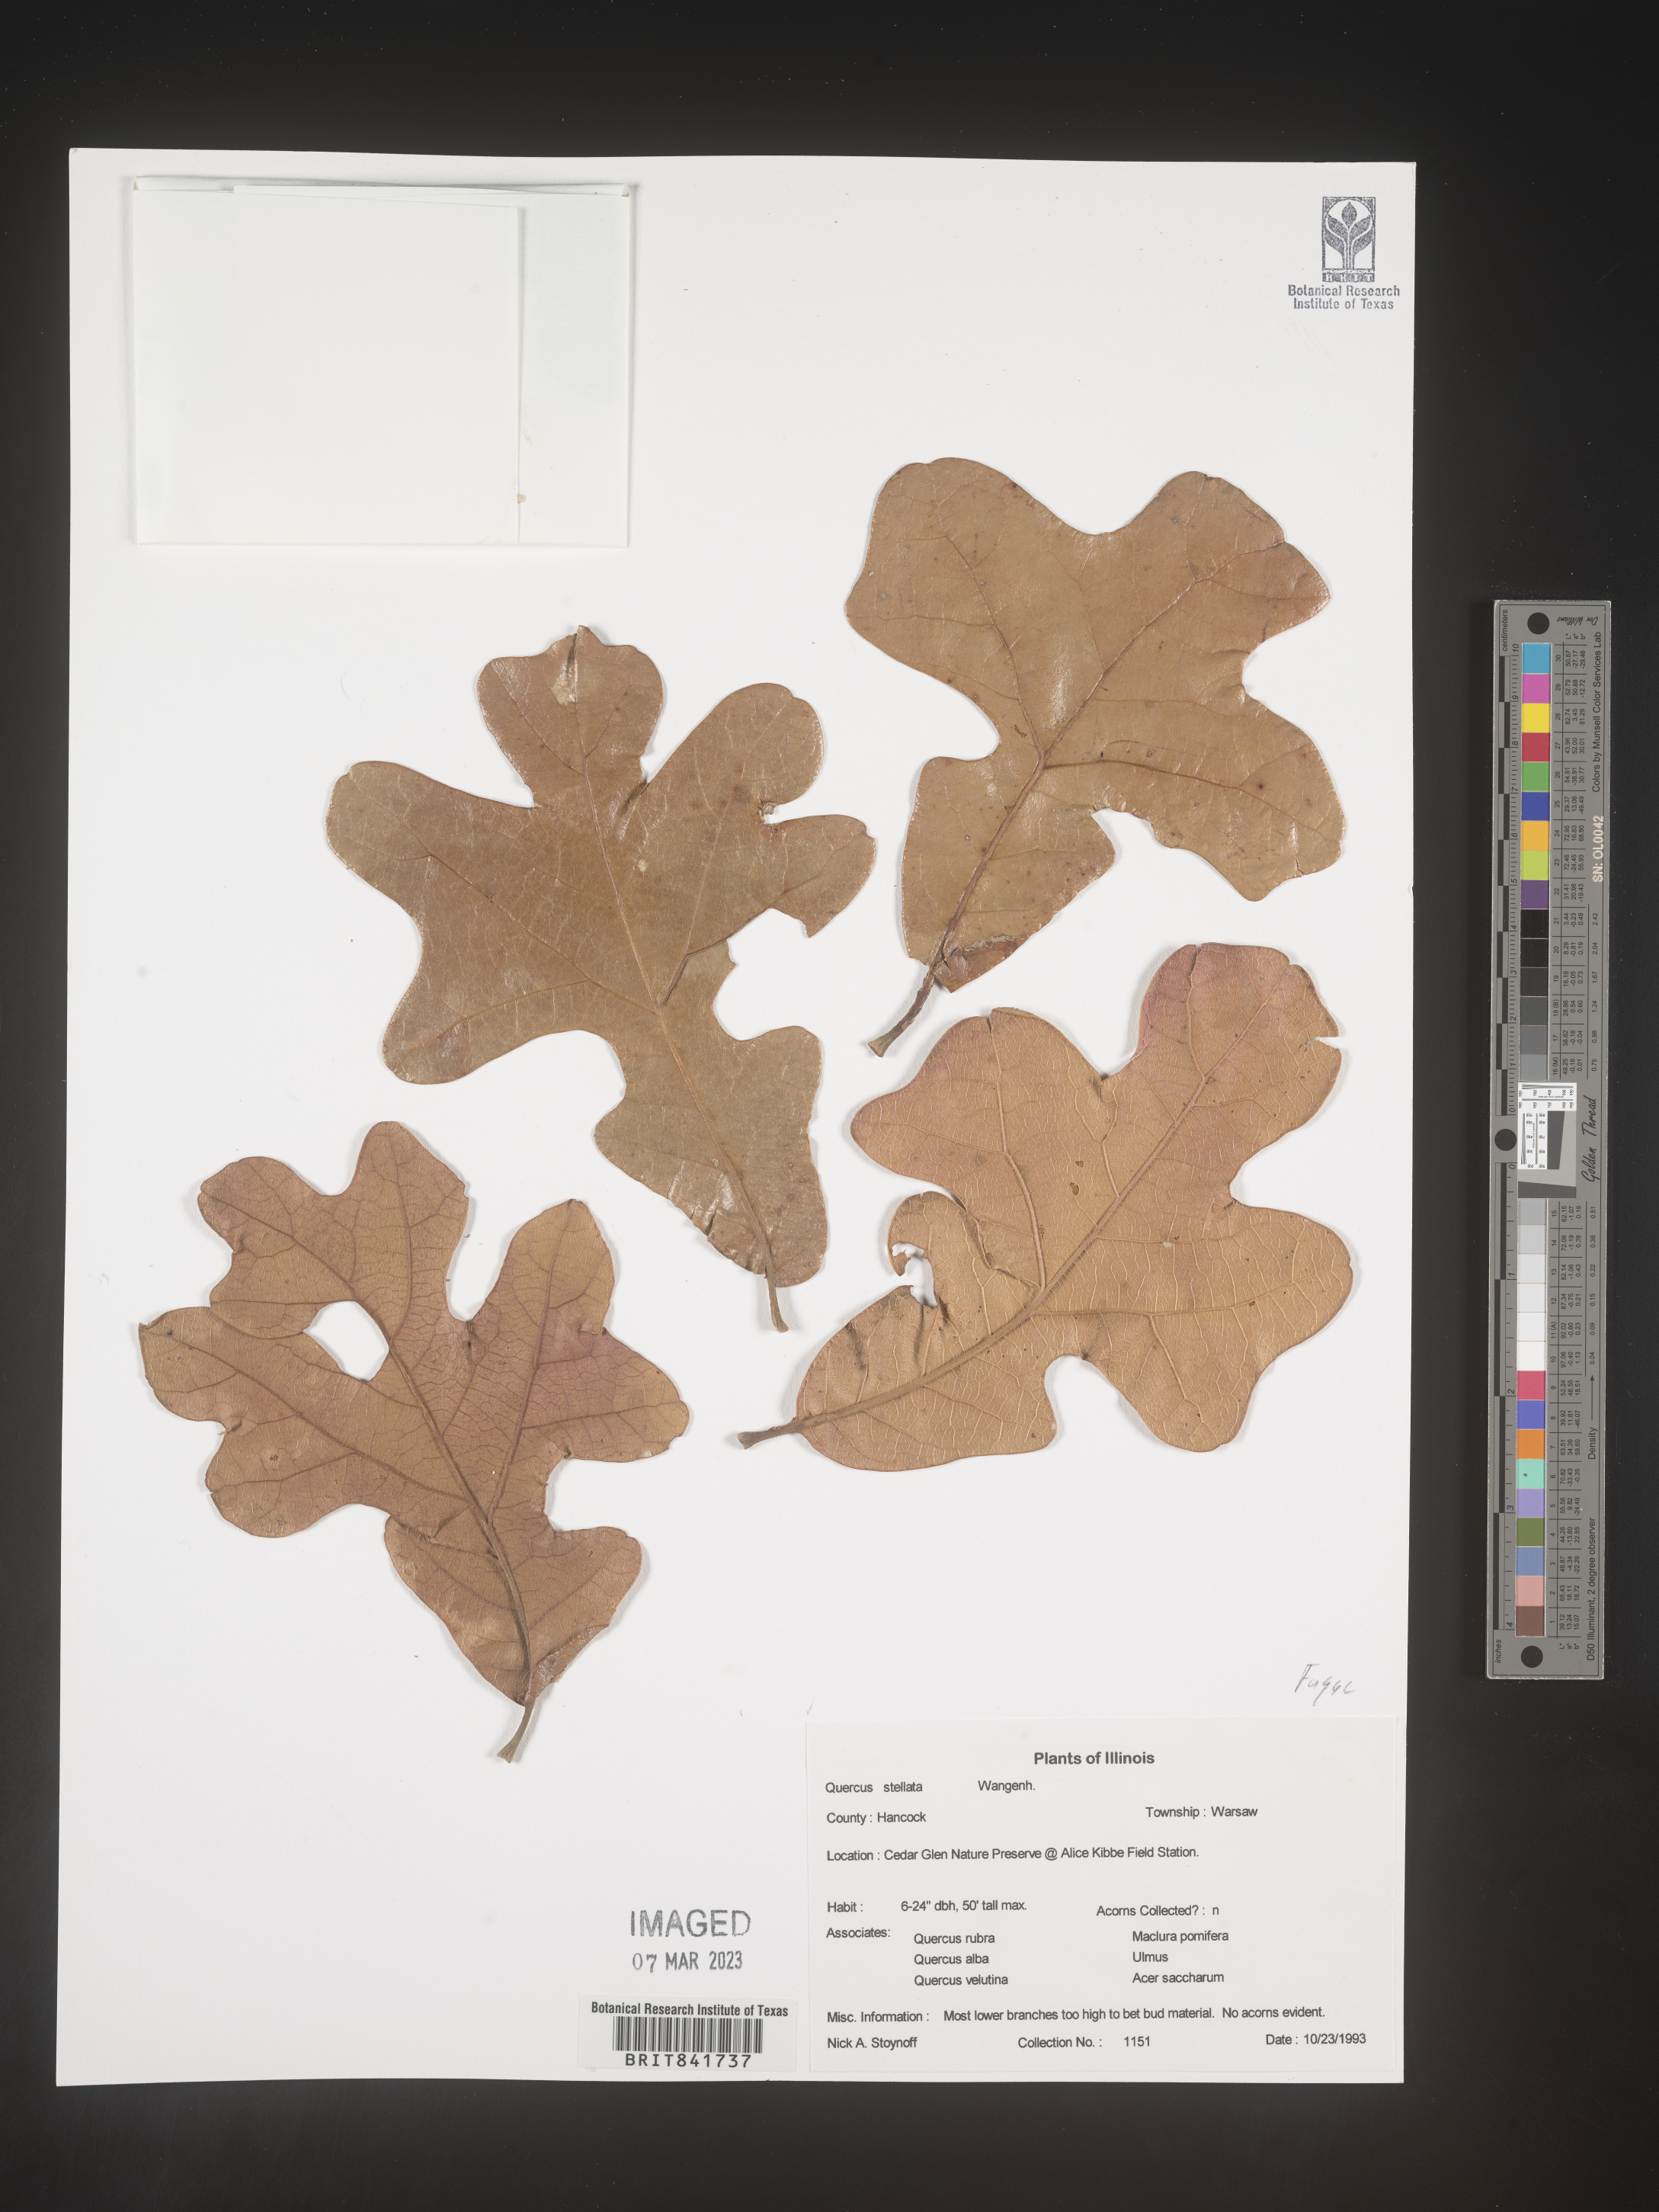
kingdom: Plantae
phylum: Tracheophyta
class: Magnoliopsida
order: Fagales
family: Fagaceae
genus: Quercus
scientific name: Quercus stellata
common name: Post oak
